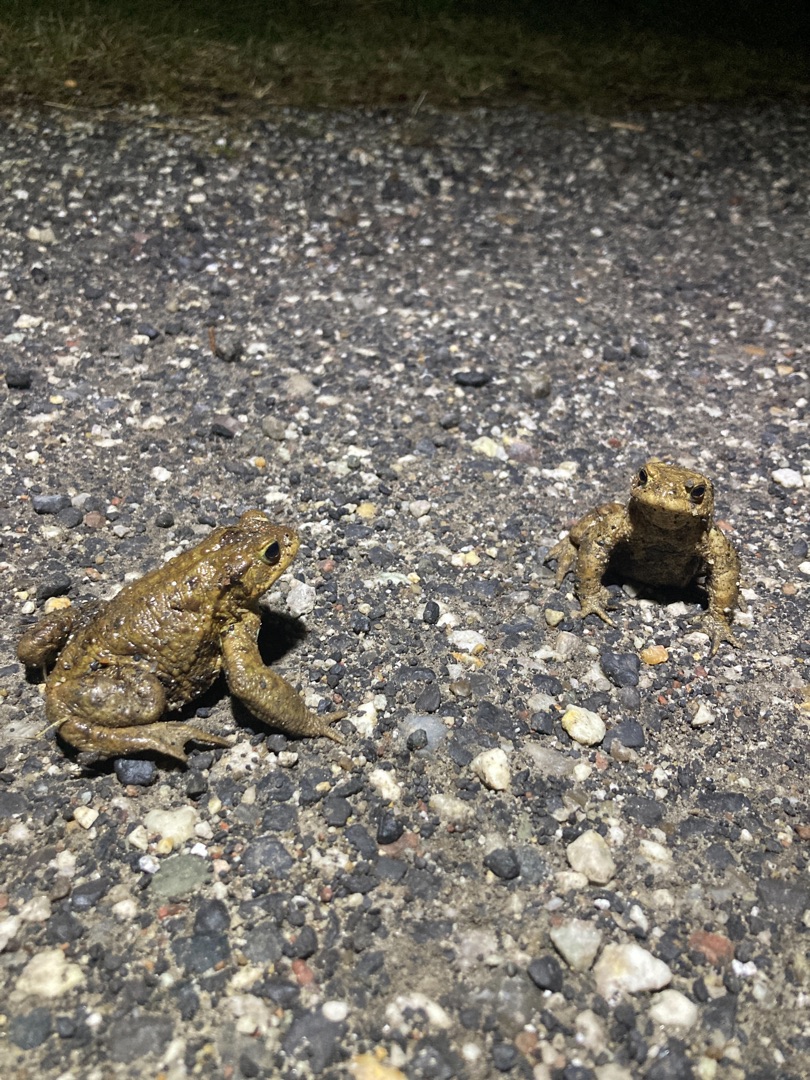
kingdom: Animalia
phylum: Chordata
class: Amphibia
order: Anura
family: Bufonidae
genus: Bufo
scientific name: Bufo bufo
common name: Skrubtudse
